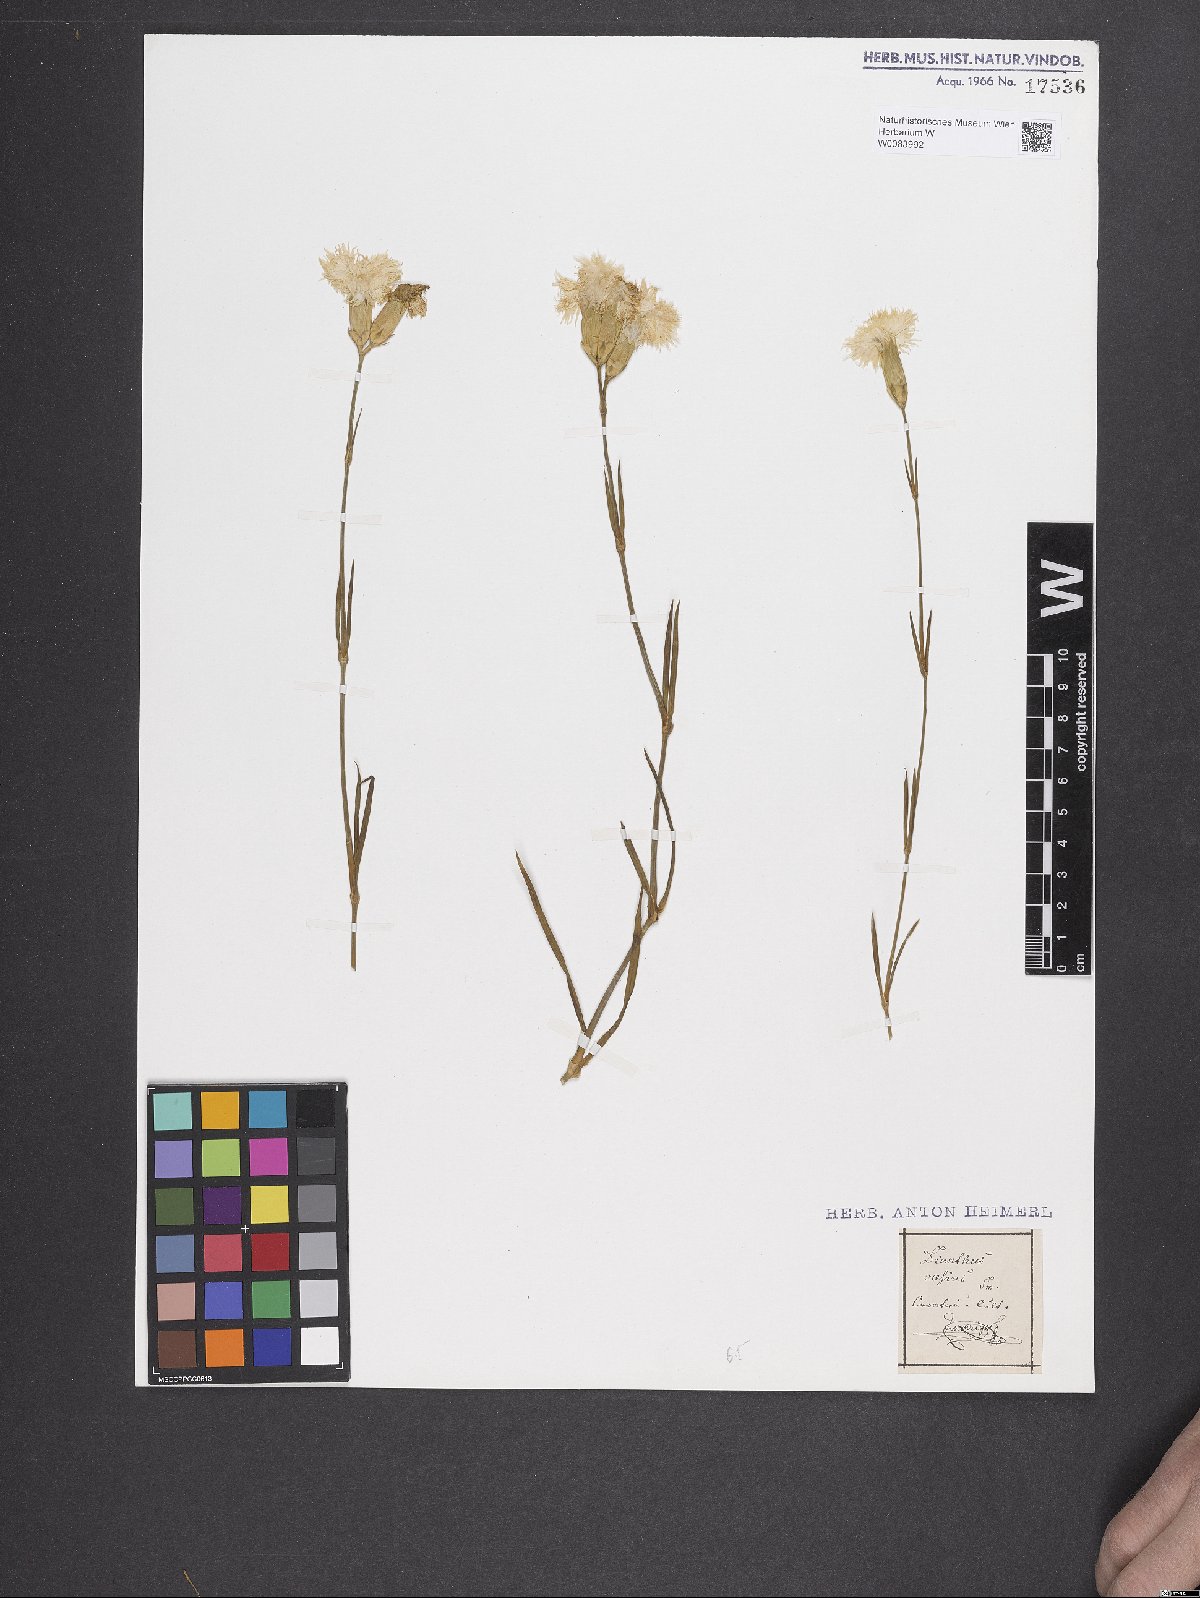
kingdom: Plantae
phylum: Tracheophyta
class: Magnoliopsida
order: Caryophyllales
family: Caryophyllaceae
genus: Dianthus
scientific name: Dianthus gratianopolitanus
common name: Cheddar pink
